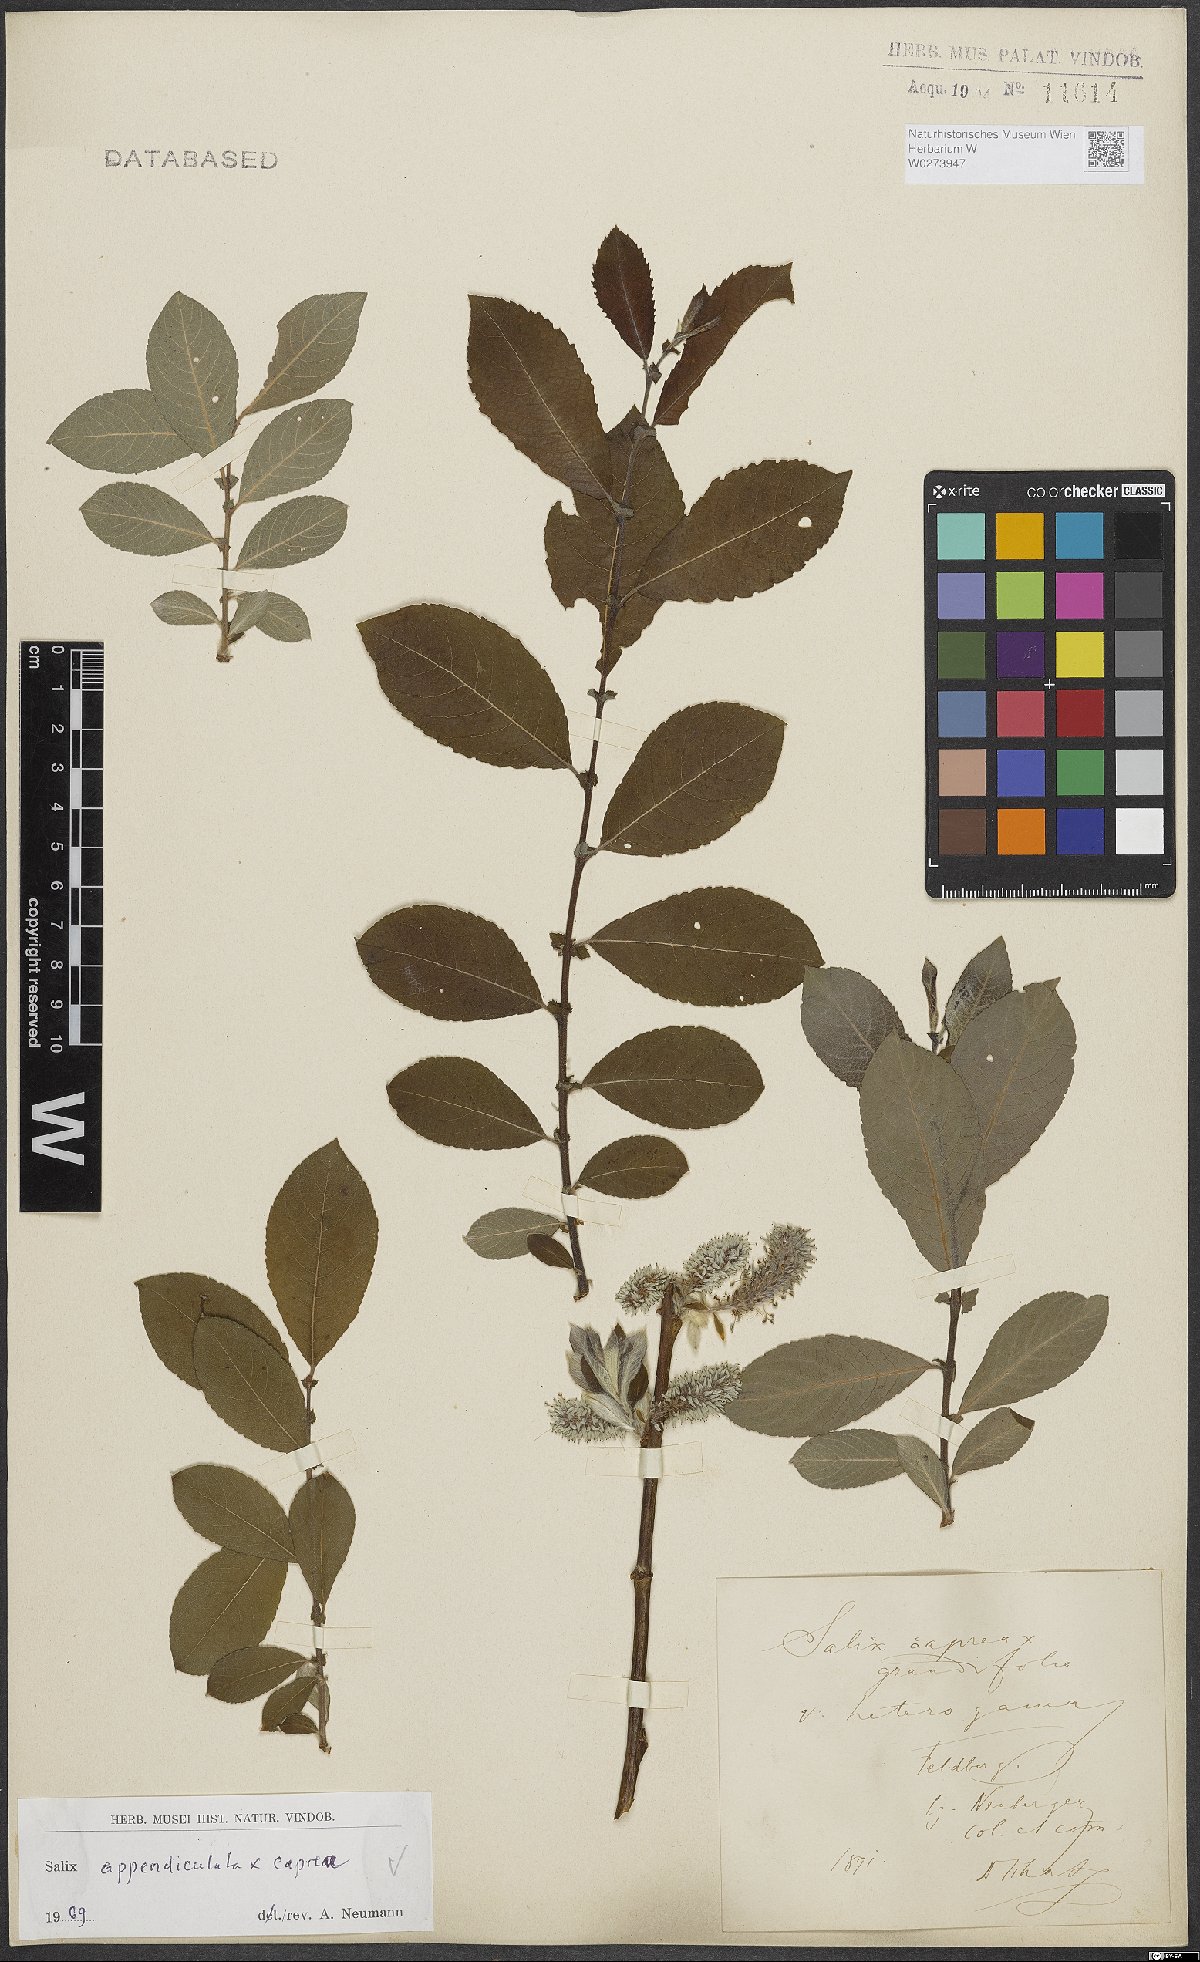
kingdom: Plantae
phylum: Tracheophyta
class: Magnoliopsida
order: Malpighiales
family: Salicaceae
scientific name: Salicaceae
